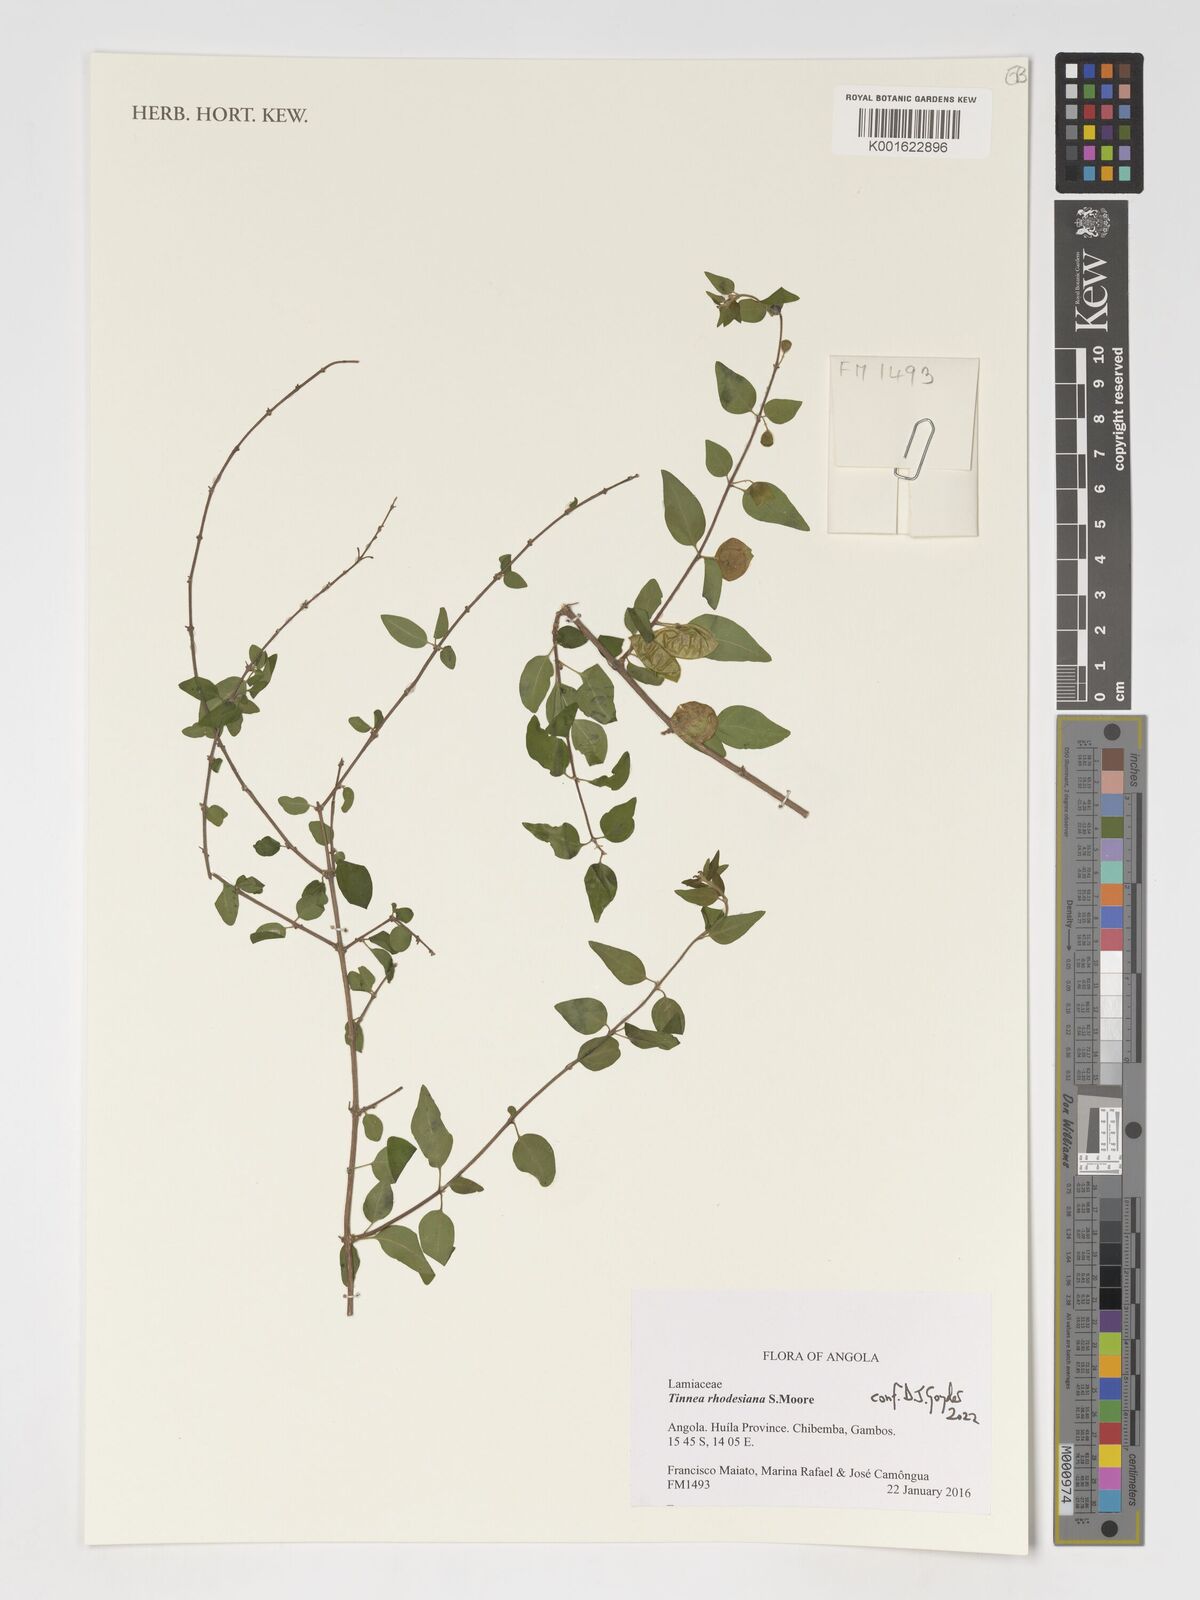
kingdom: Plantae
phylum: Tracheophyta
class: Magnoliopsida
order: Lamiales
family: Lamiaceae
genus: Tinnea
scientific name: Tinnea rhodesiana
